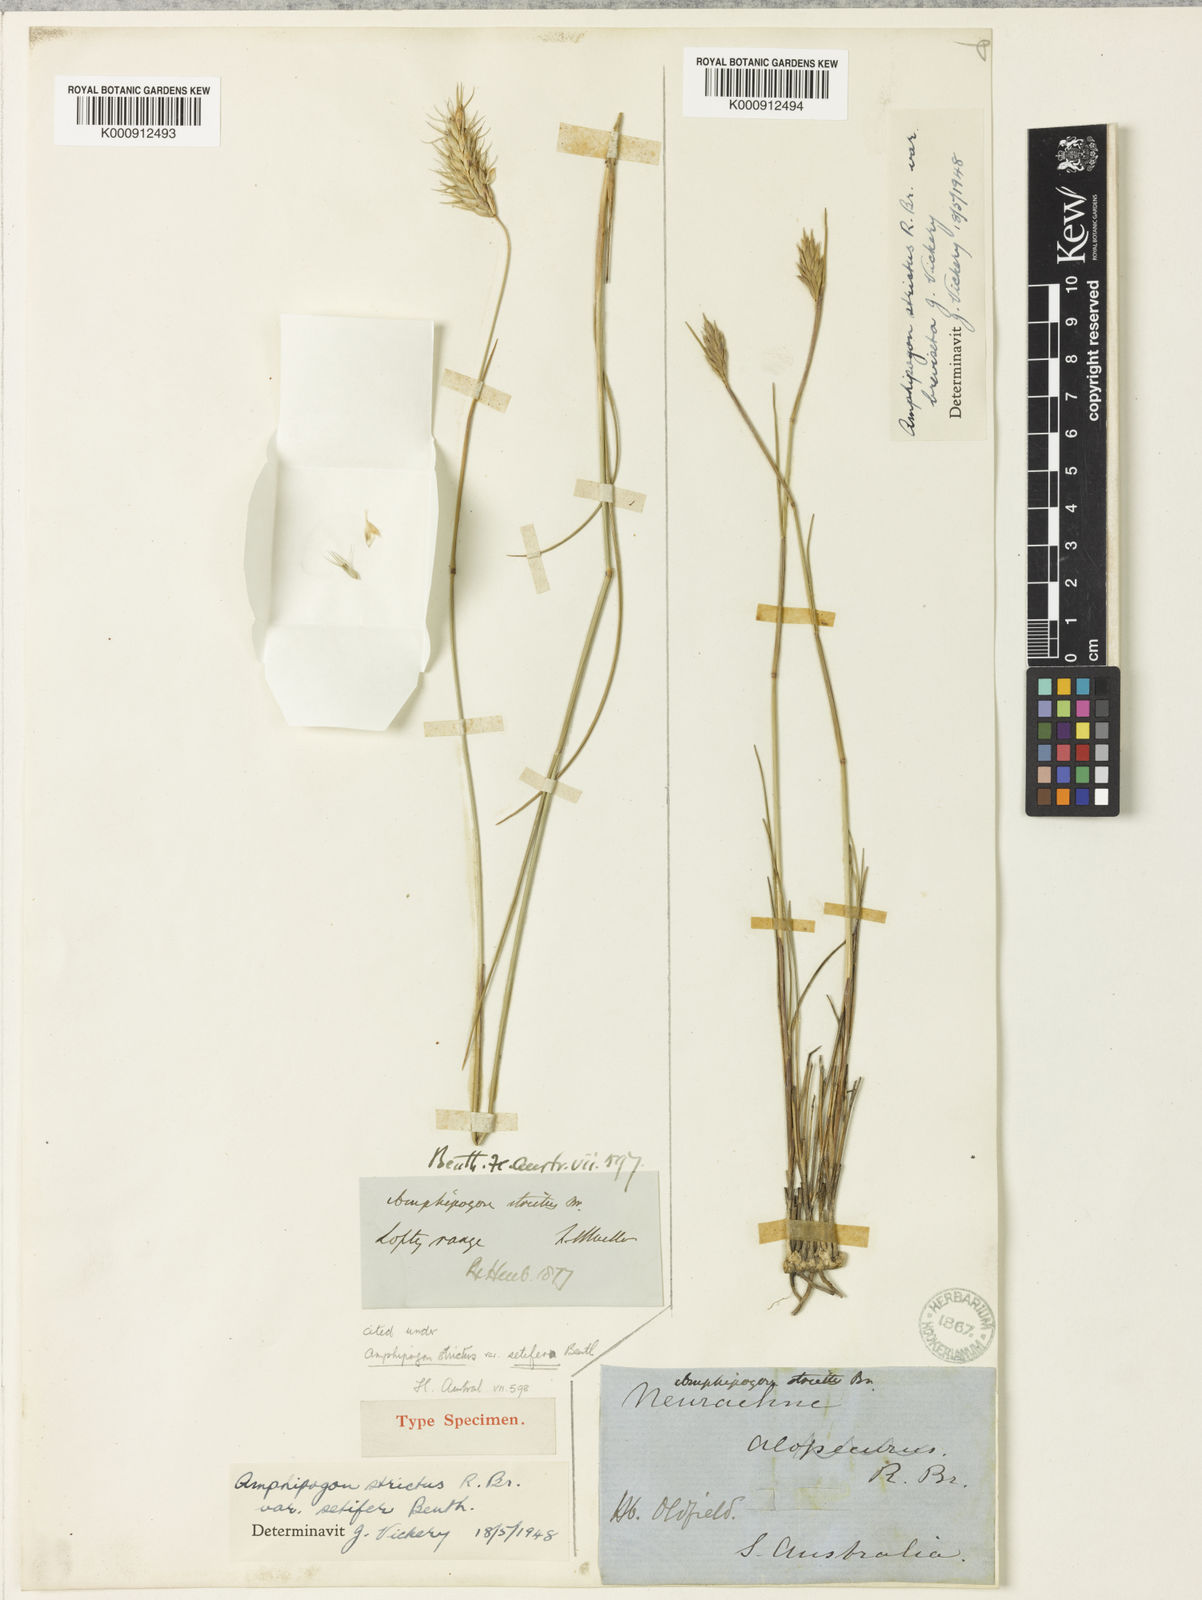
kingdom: Plantae
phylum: Tracheophyta
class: Liliopsida
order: Poales
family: Poaceae
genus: Amphipogon
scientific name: Amphipogon strictus
